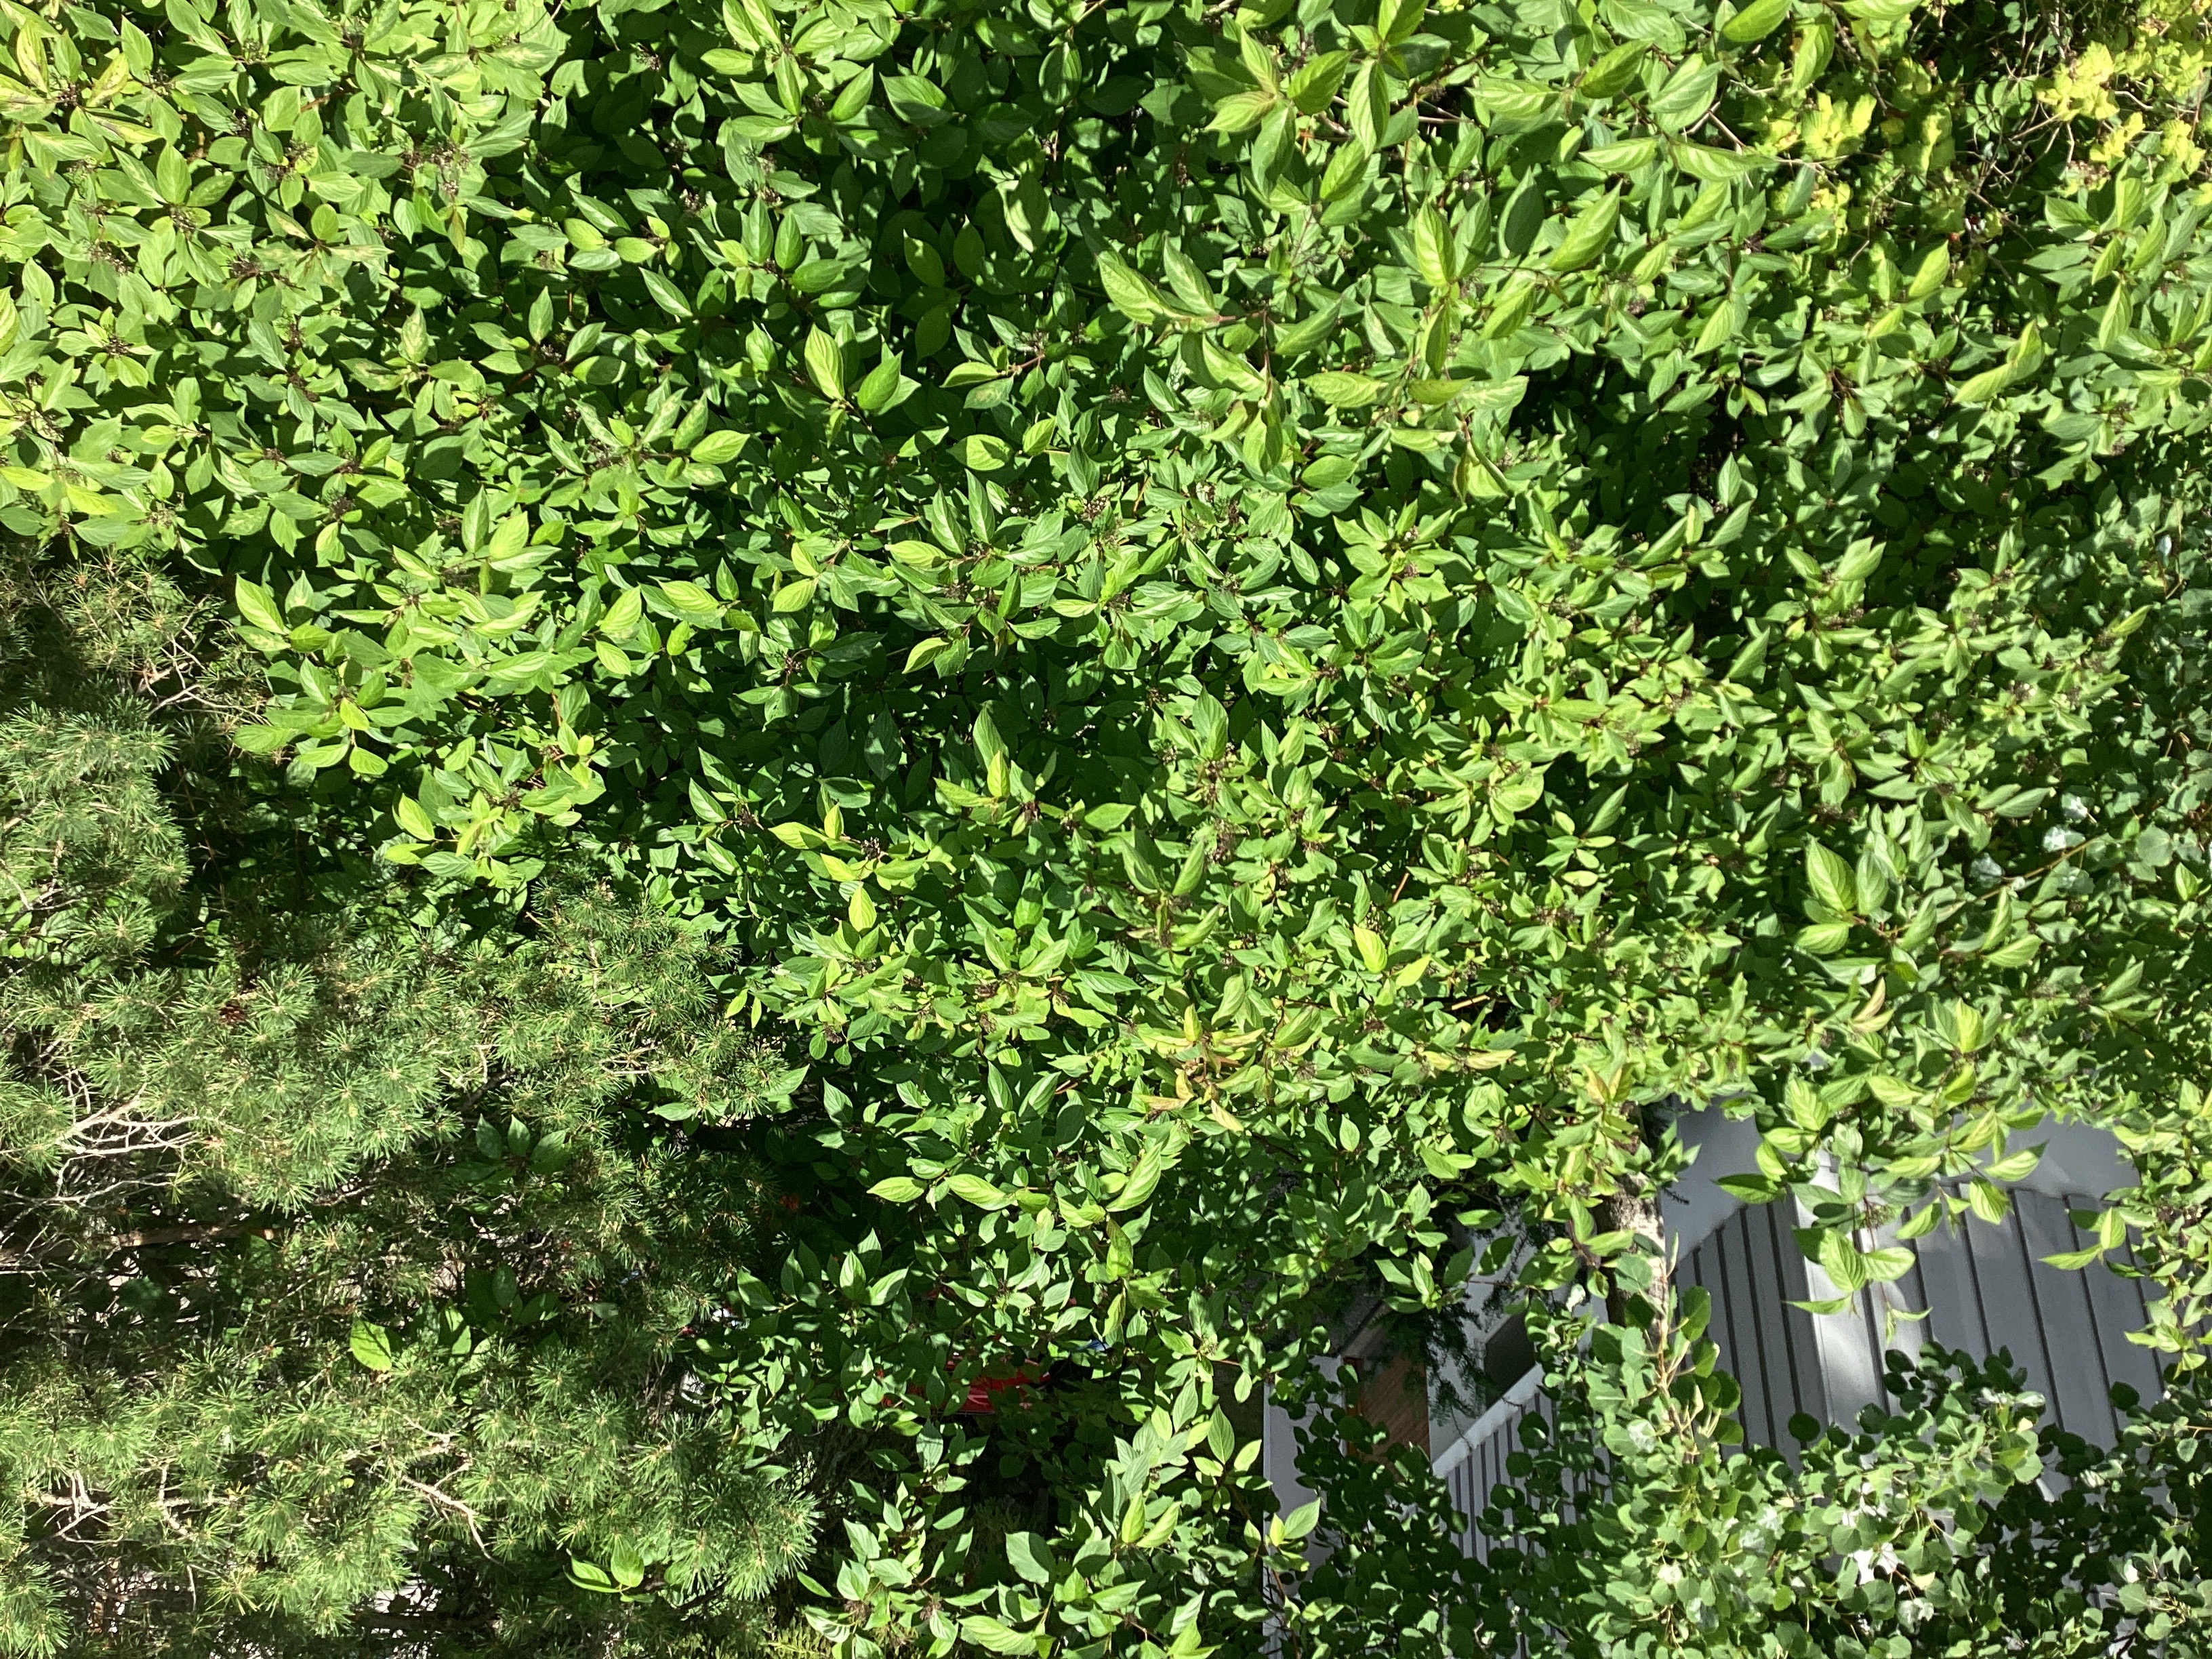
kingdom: Plantae
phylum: Tracheophyta
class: Magnoliopsida
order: Cornales
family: Cornaceae
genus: Cornus
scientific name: Cornus alba
